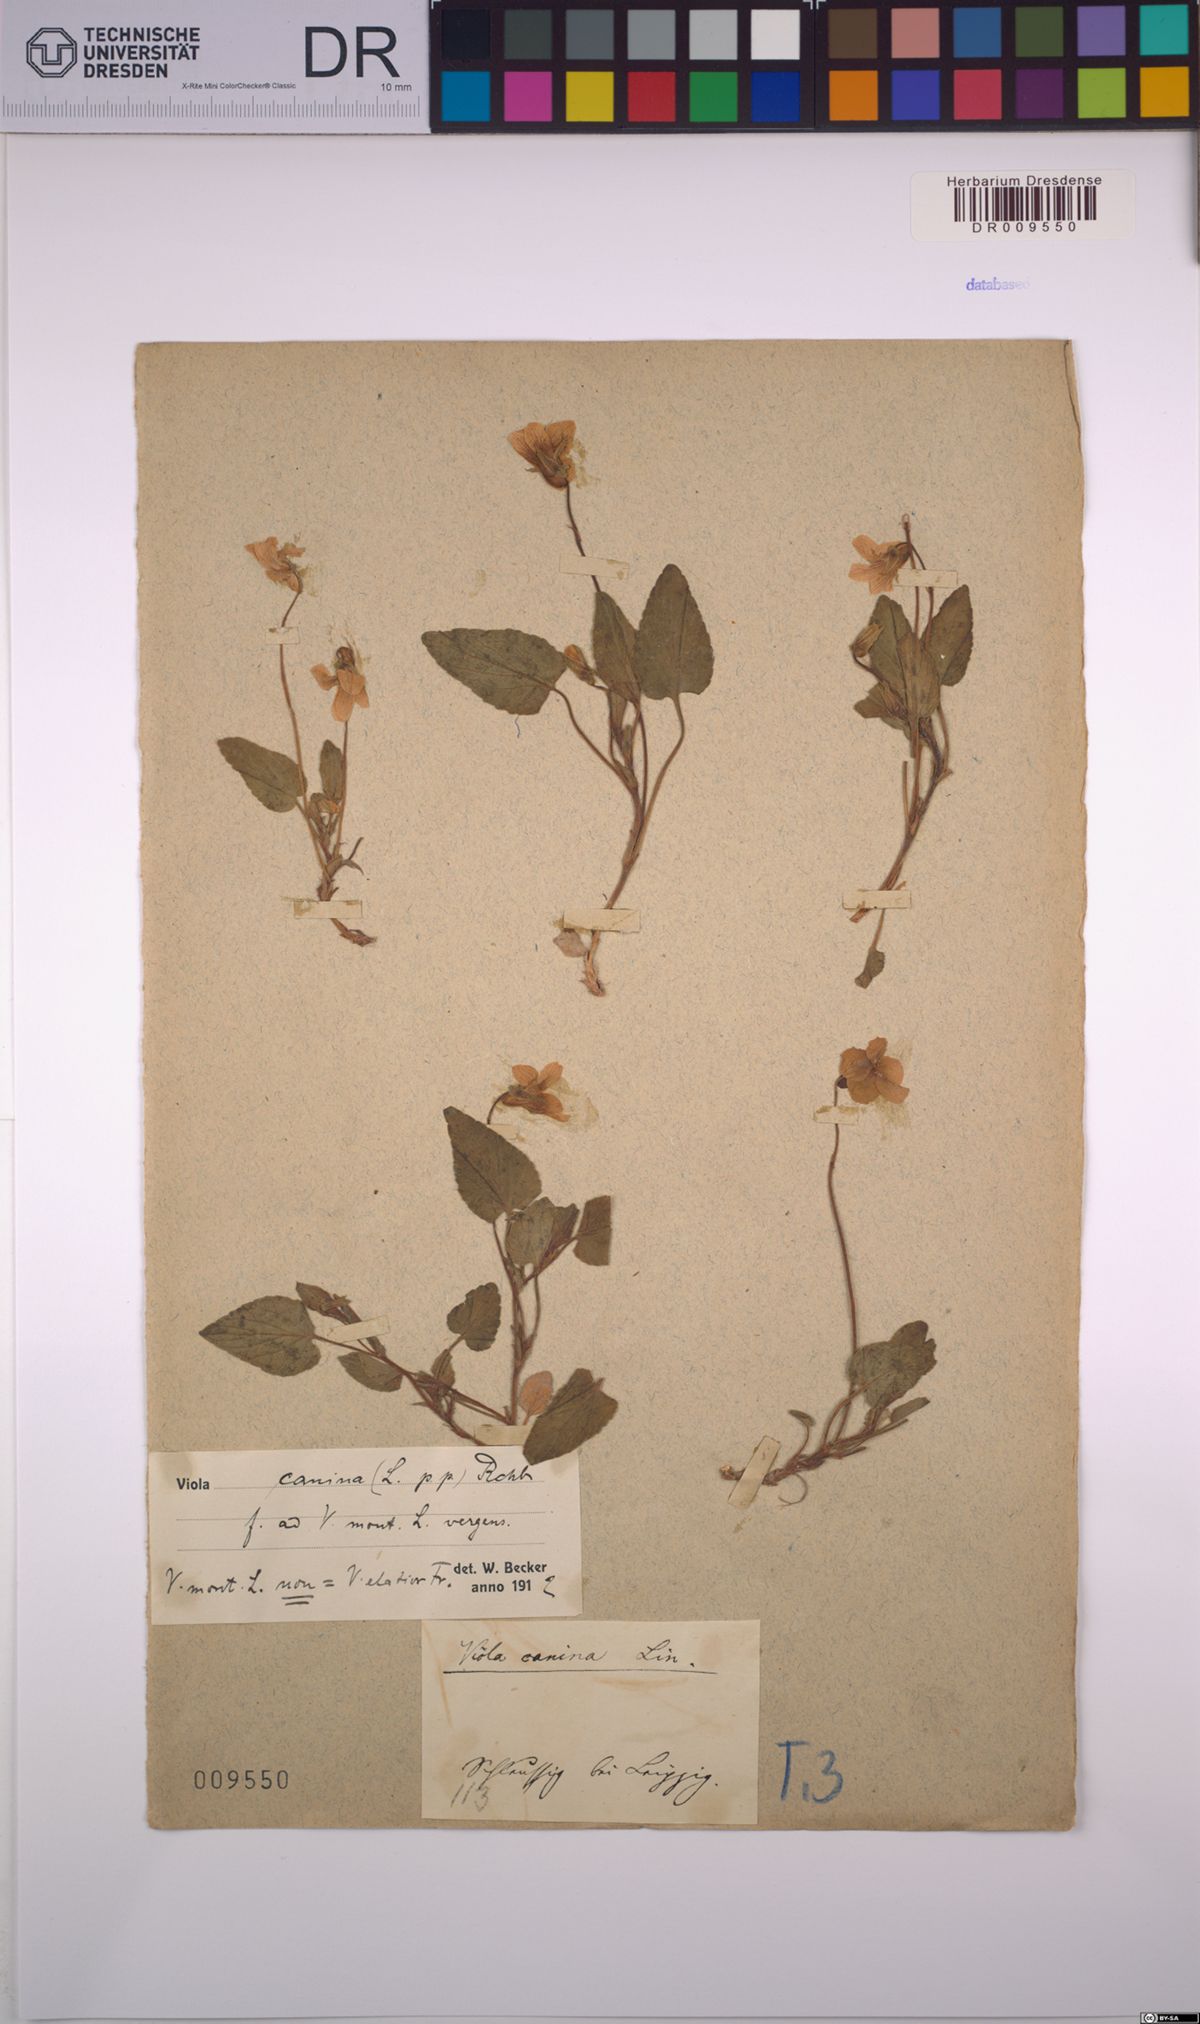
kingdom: Plantae
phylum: Tracheophyta
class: Magnoliopsida
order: Malpighiales
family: Violaceae
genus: Viola
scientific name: Viola canina
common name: Heath dog-violet
